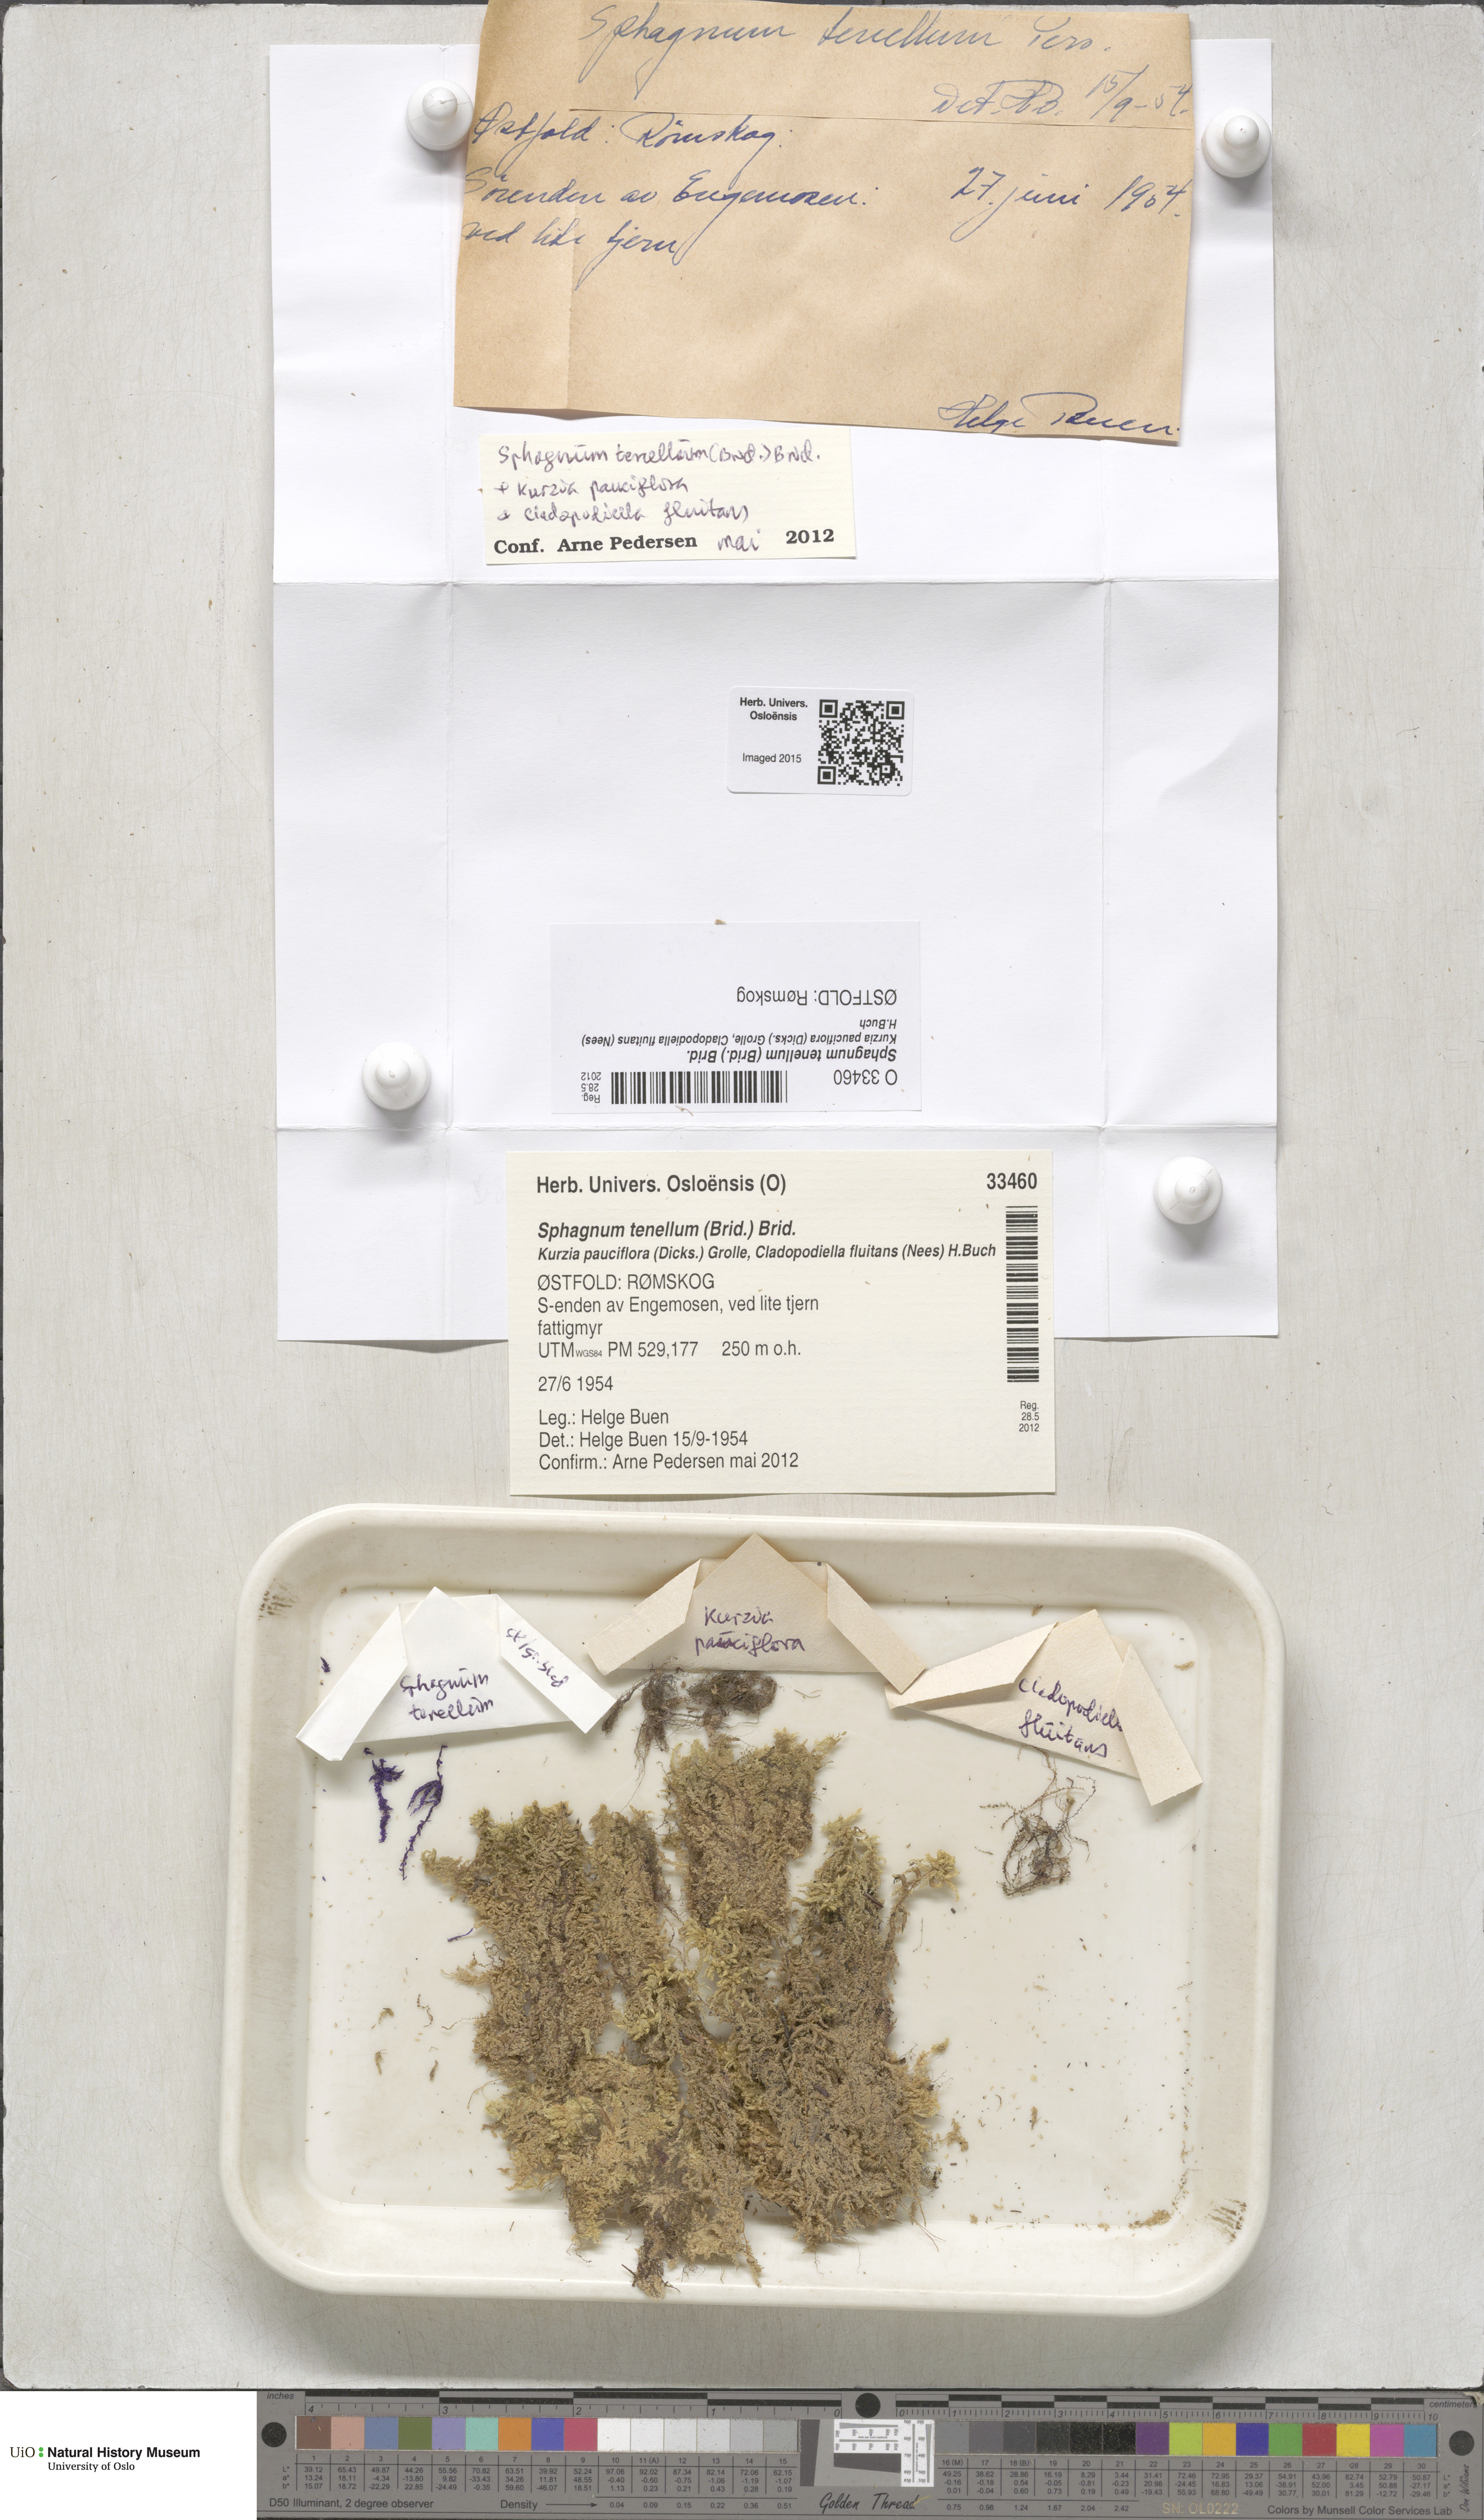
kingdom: Plantae
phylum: Bryophyta
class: Sphagnopsida
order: Sphagnales
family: Sphagnaceae
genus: Sphagnum
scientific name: Sphagnum tenellum
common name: Soft bog-moss
